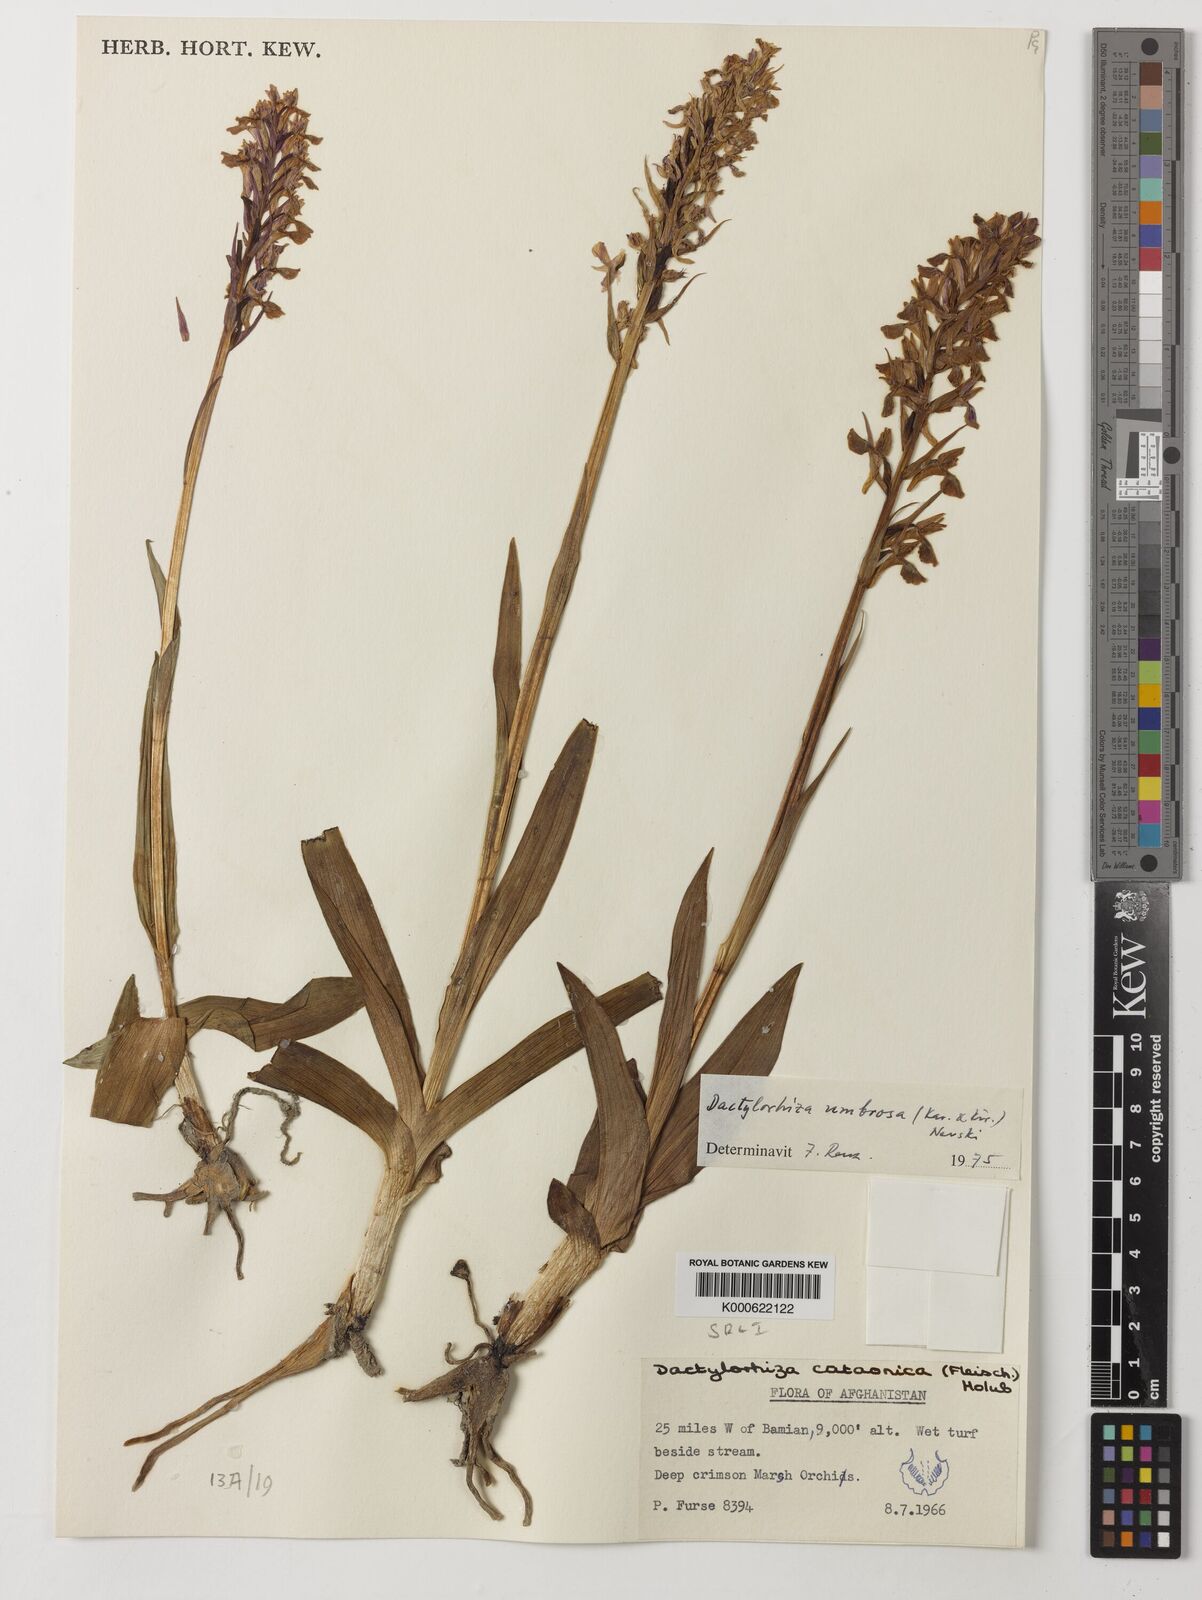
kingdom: Plantae
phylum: Tracheophyta
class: Liliopsida
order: Asparagales
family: Orchidaceae
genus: Dactylorhiza
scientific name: Dactylorhiza
